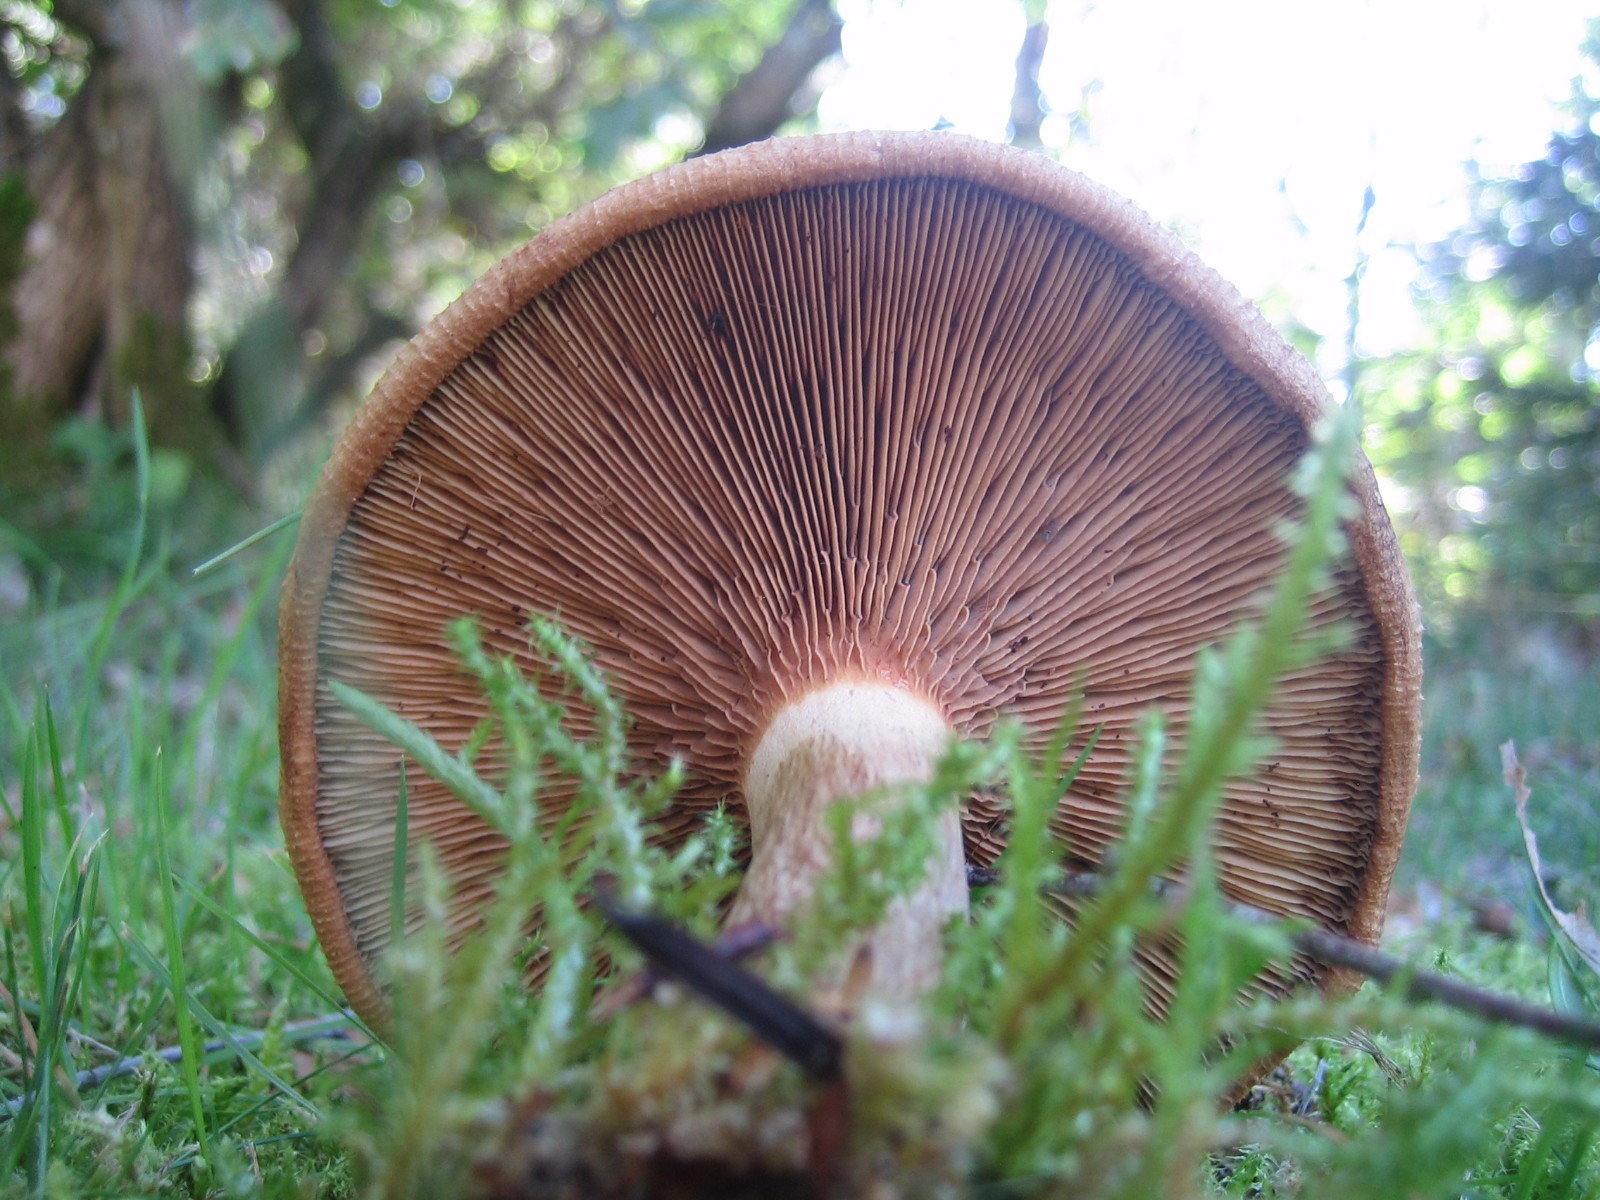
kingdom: Fungi
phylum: Basidiomycota
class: Agaricomycetes
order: Boletales
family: Paxillaceae
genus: Paxillus
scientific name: Paxillus involutus
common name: almindelig netbladhat
